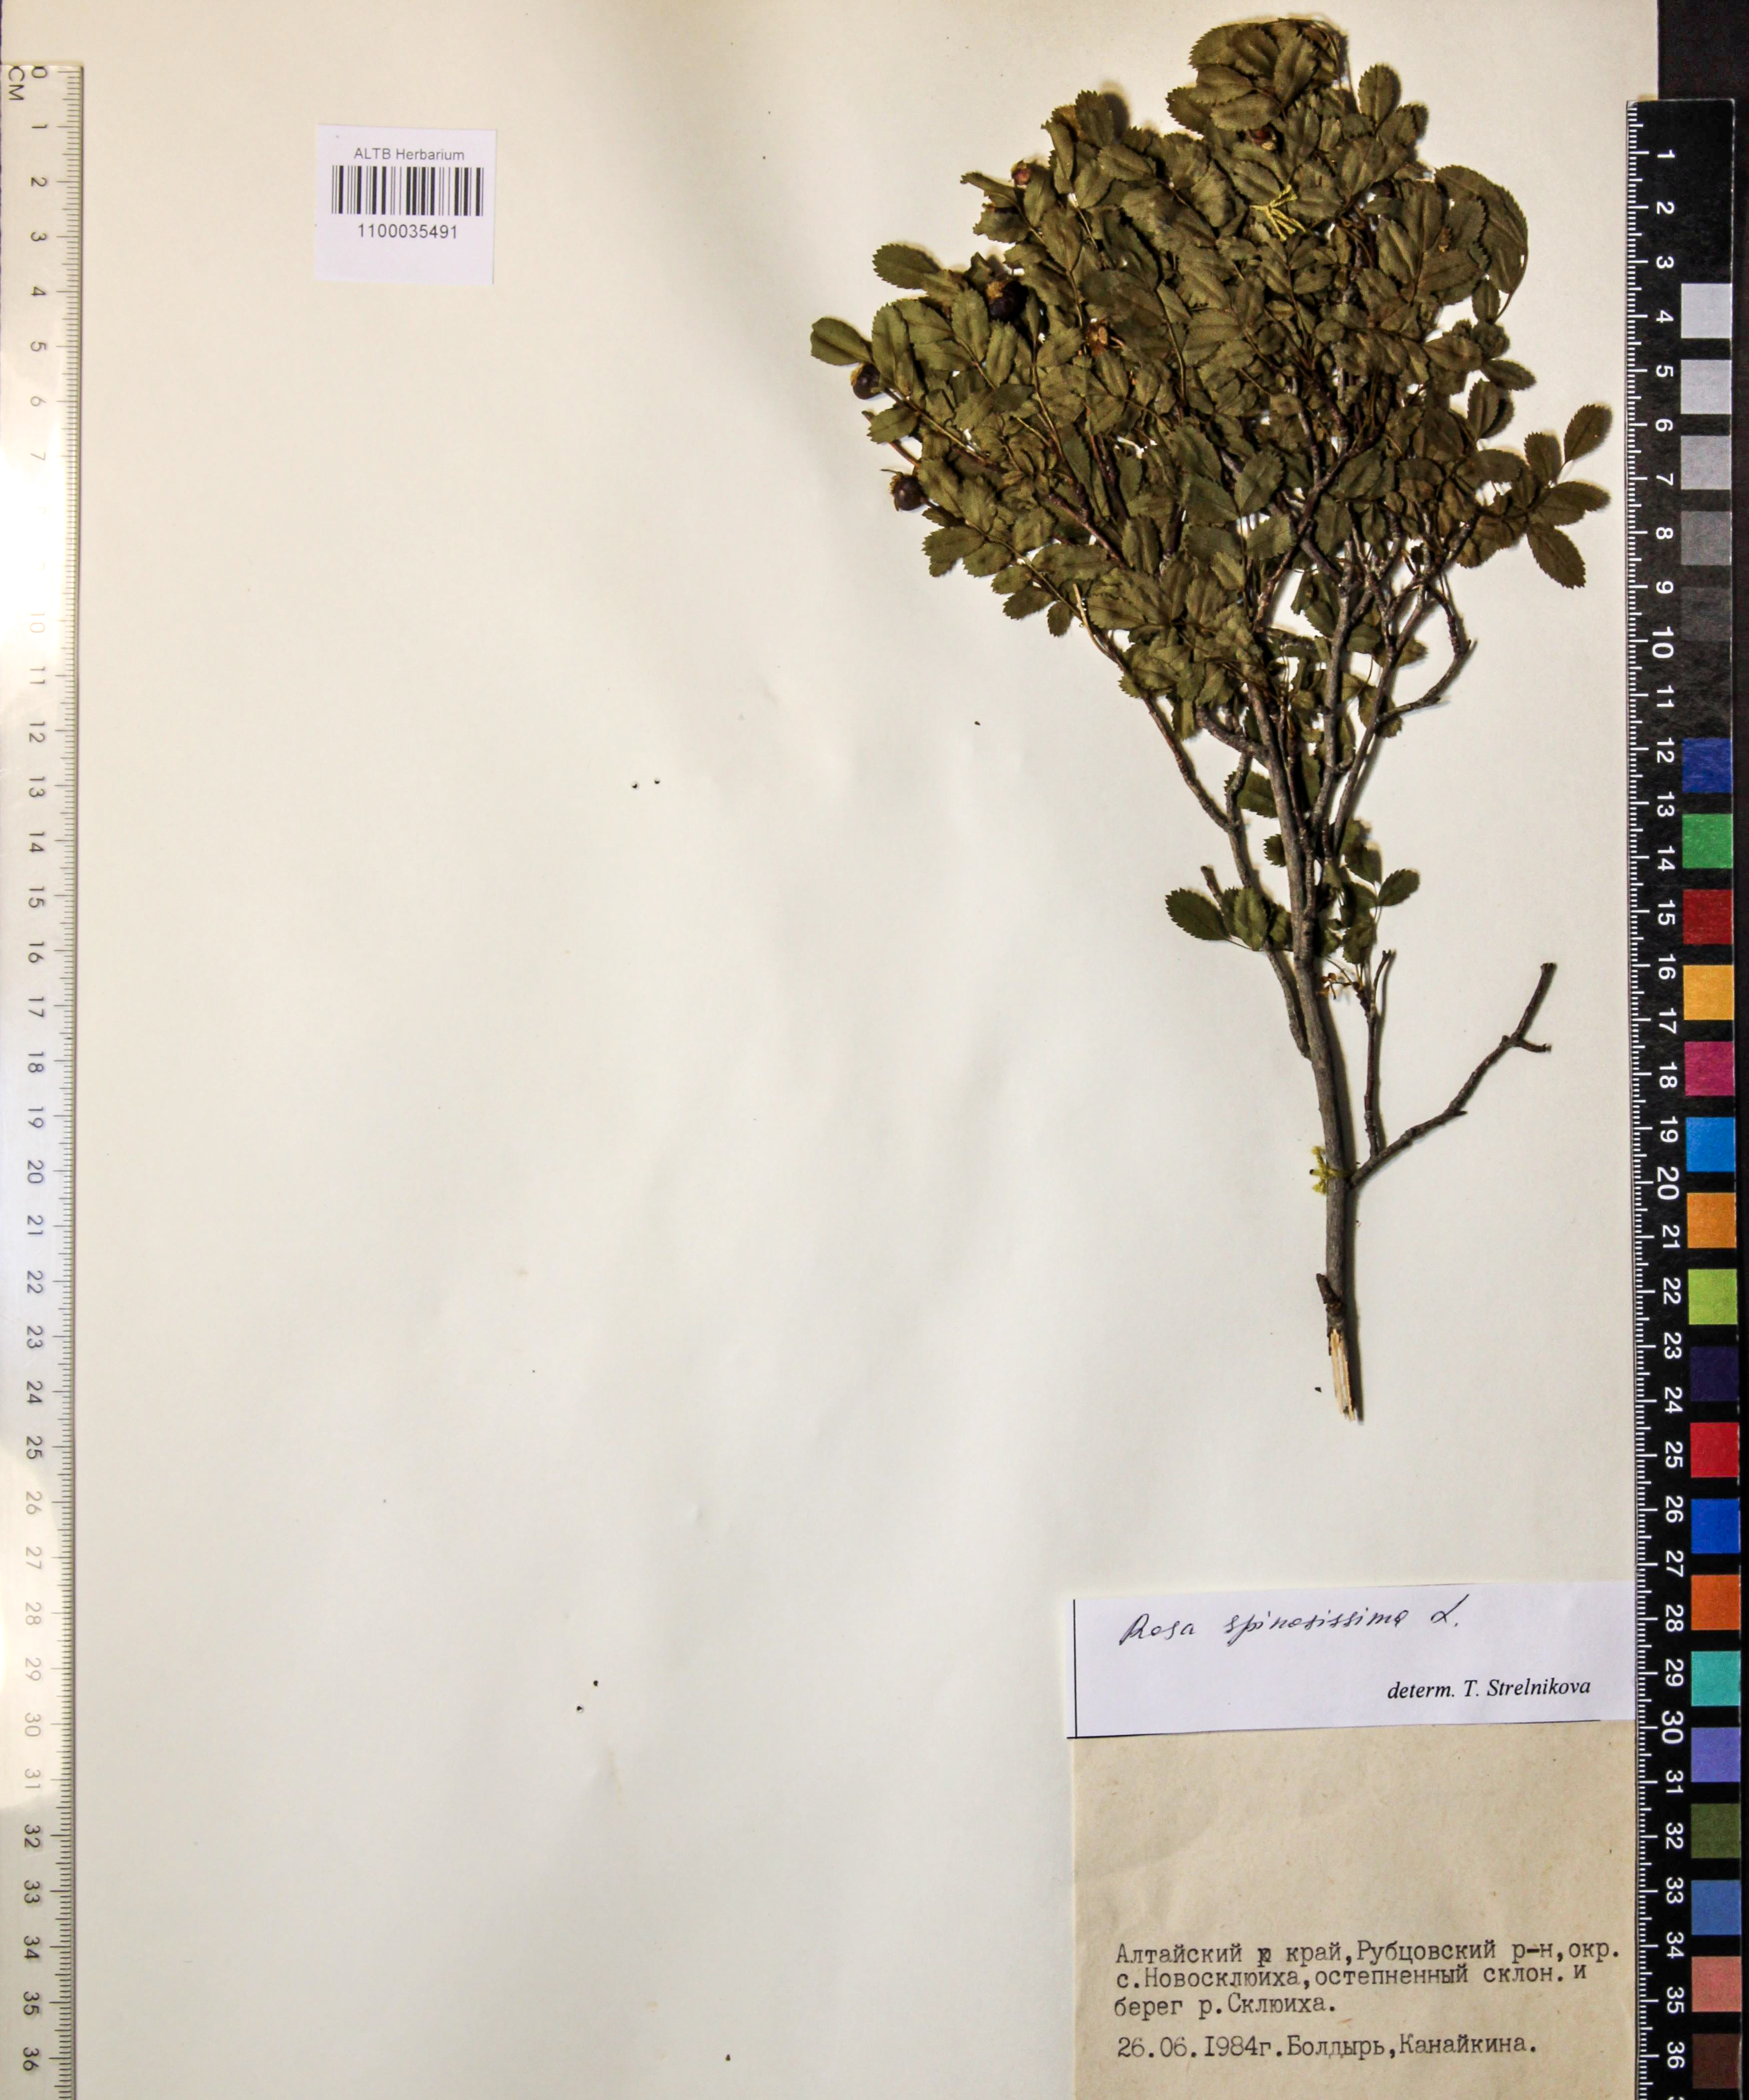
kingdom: Plantae
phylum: Tracheophyta
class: Magnoliopsida
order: Rosales
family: Rosaceae
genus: Rosa
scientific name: Rosa spinosissima
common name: Burnet rose
